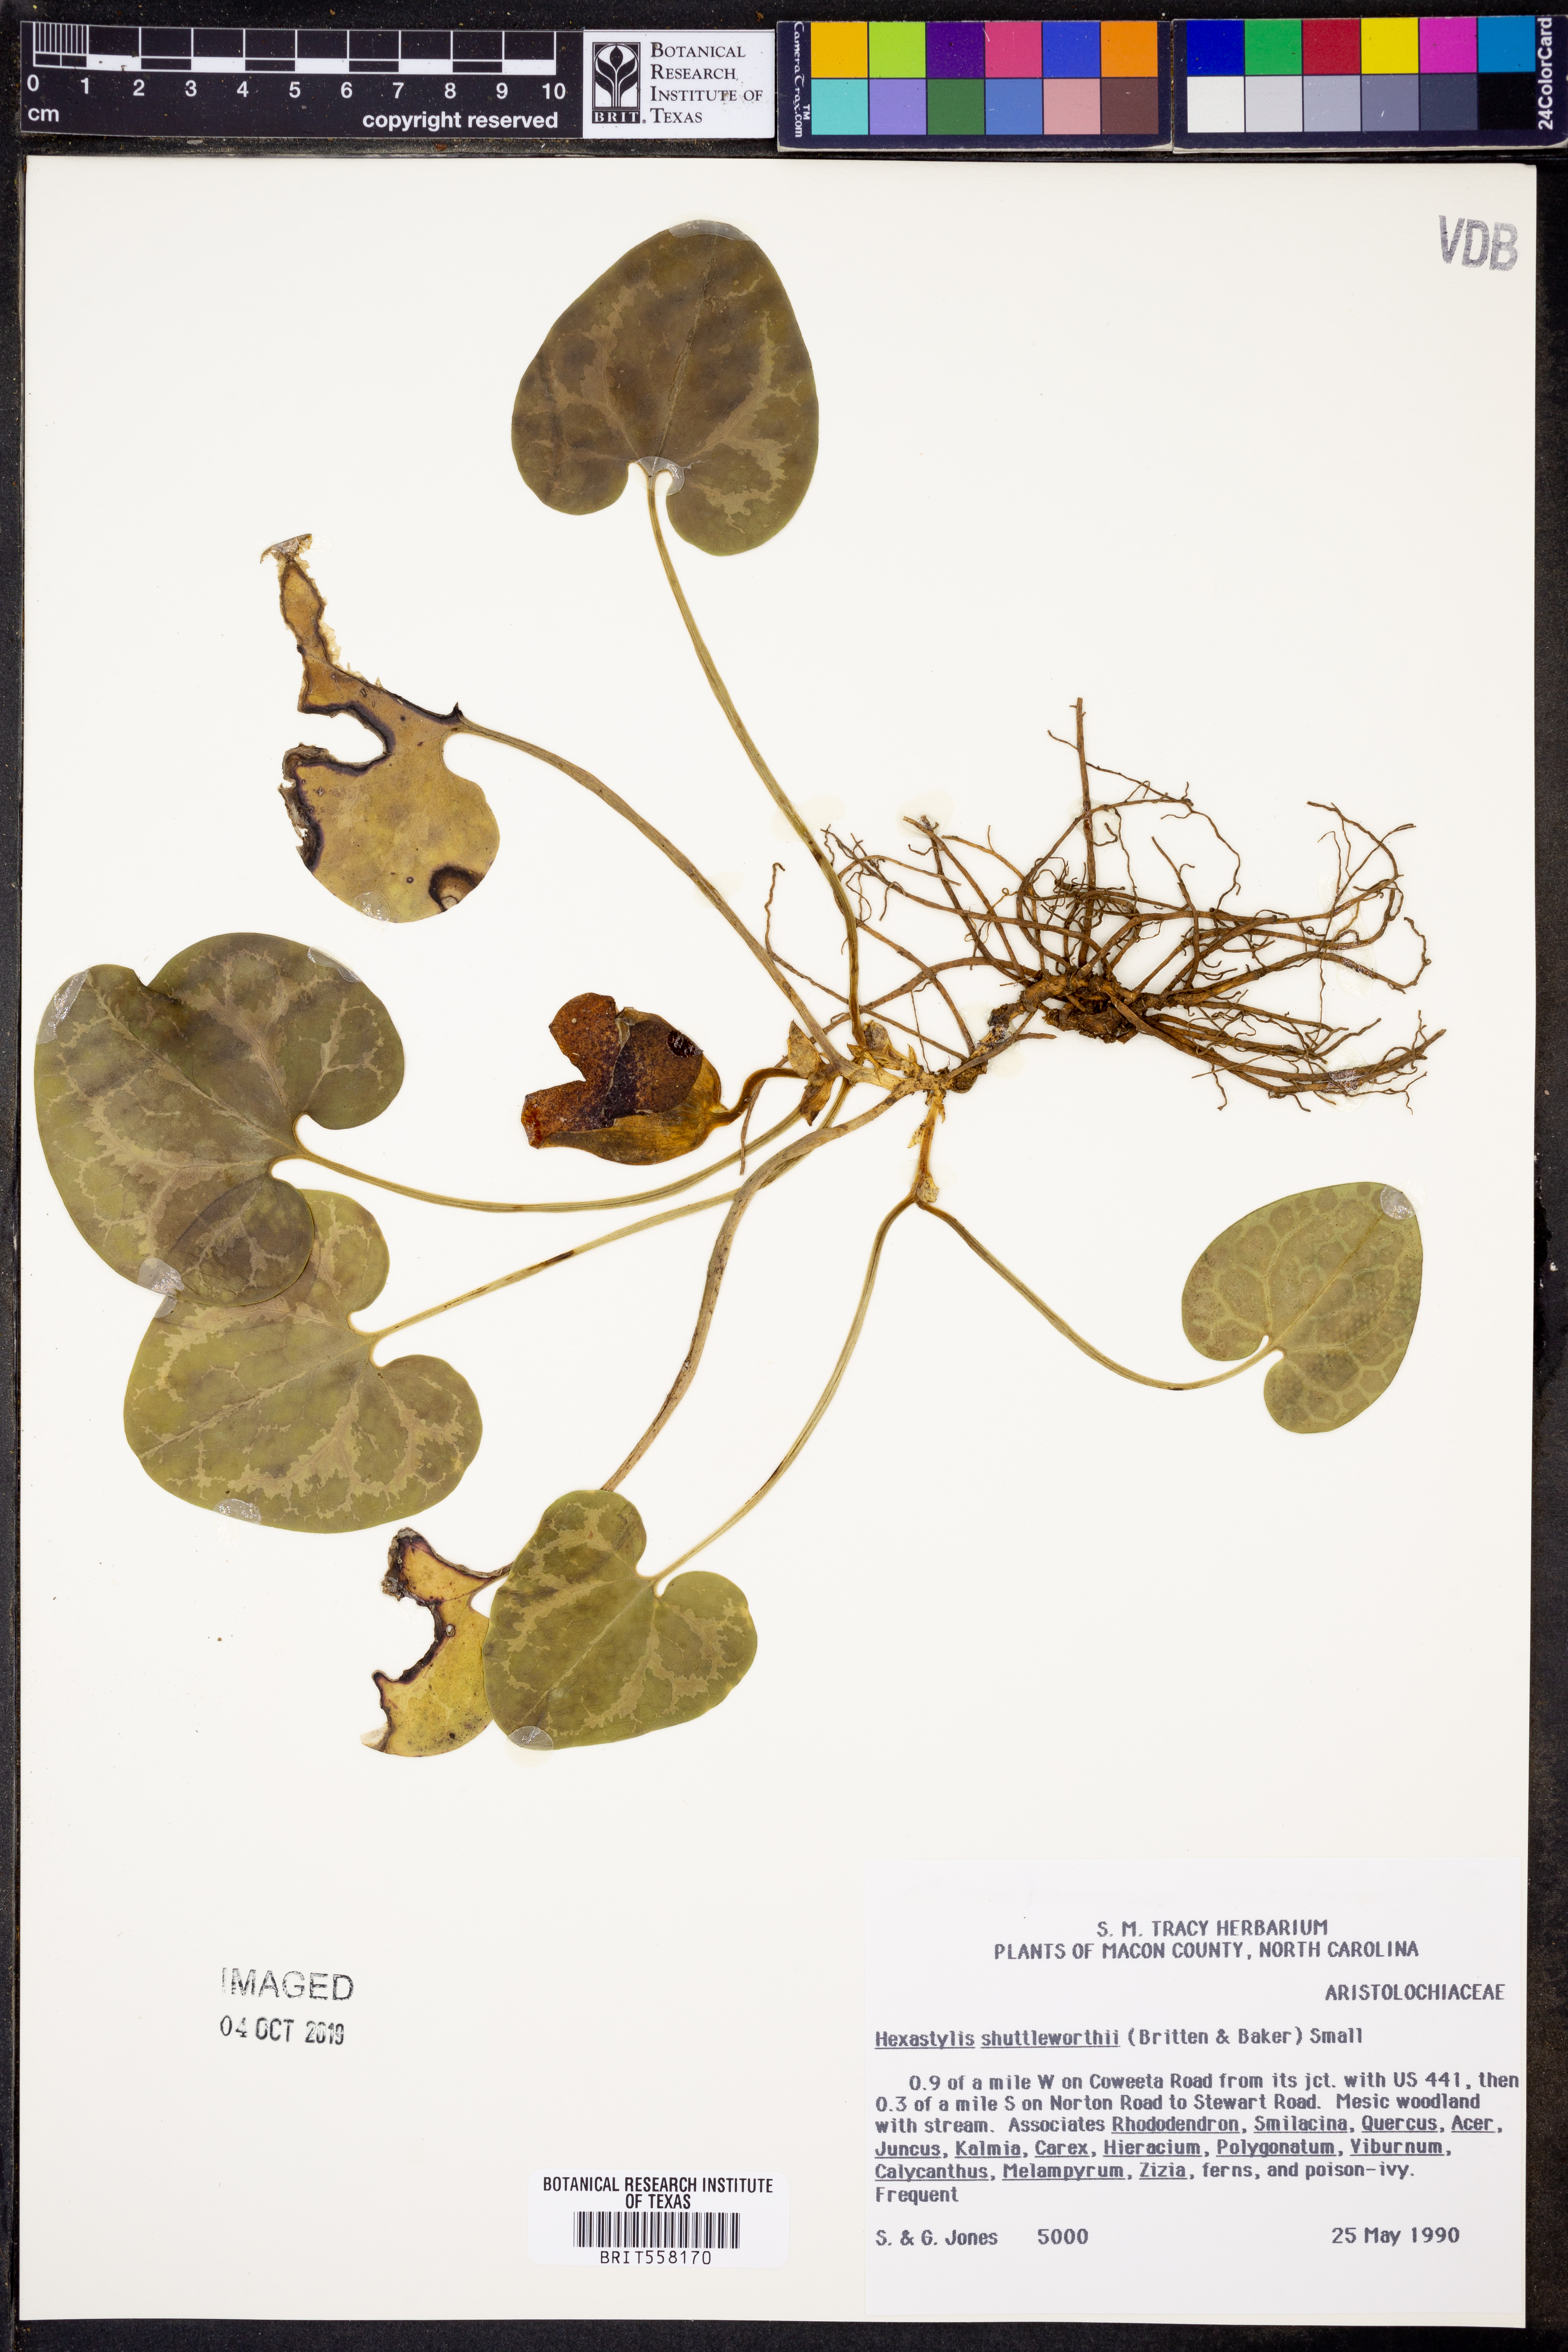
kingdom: Plantae
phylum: Tracheophyta
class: Magnoliopsida
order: Piperales
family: Aristolochiaceae
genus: Hexastylis
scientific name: Hexastylis shuttleworthii
